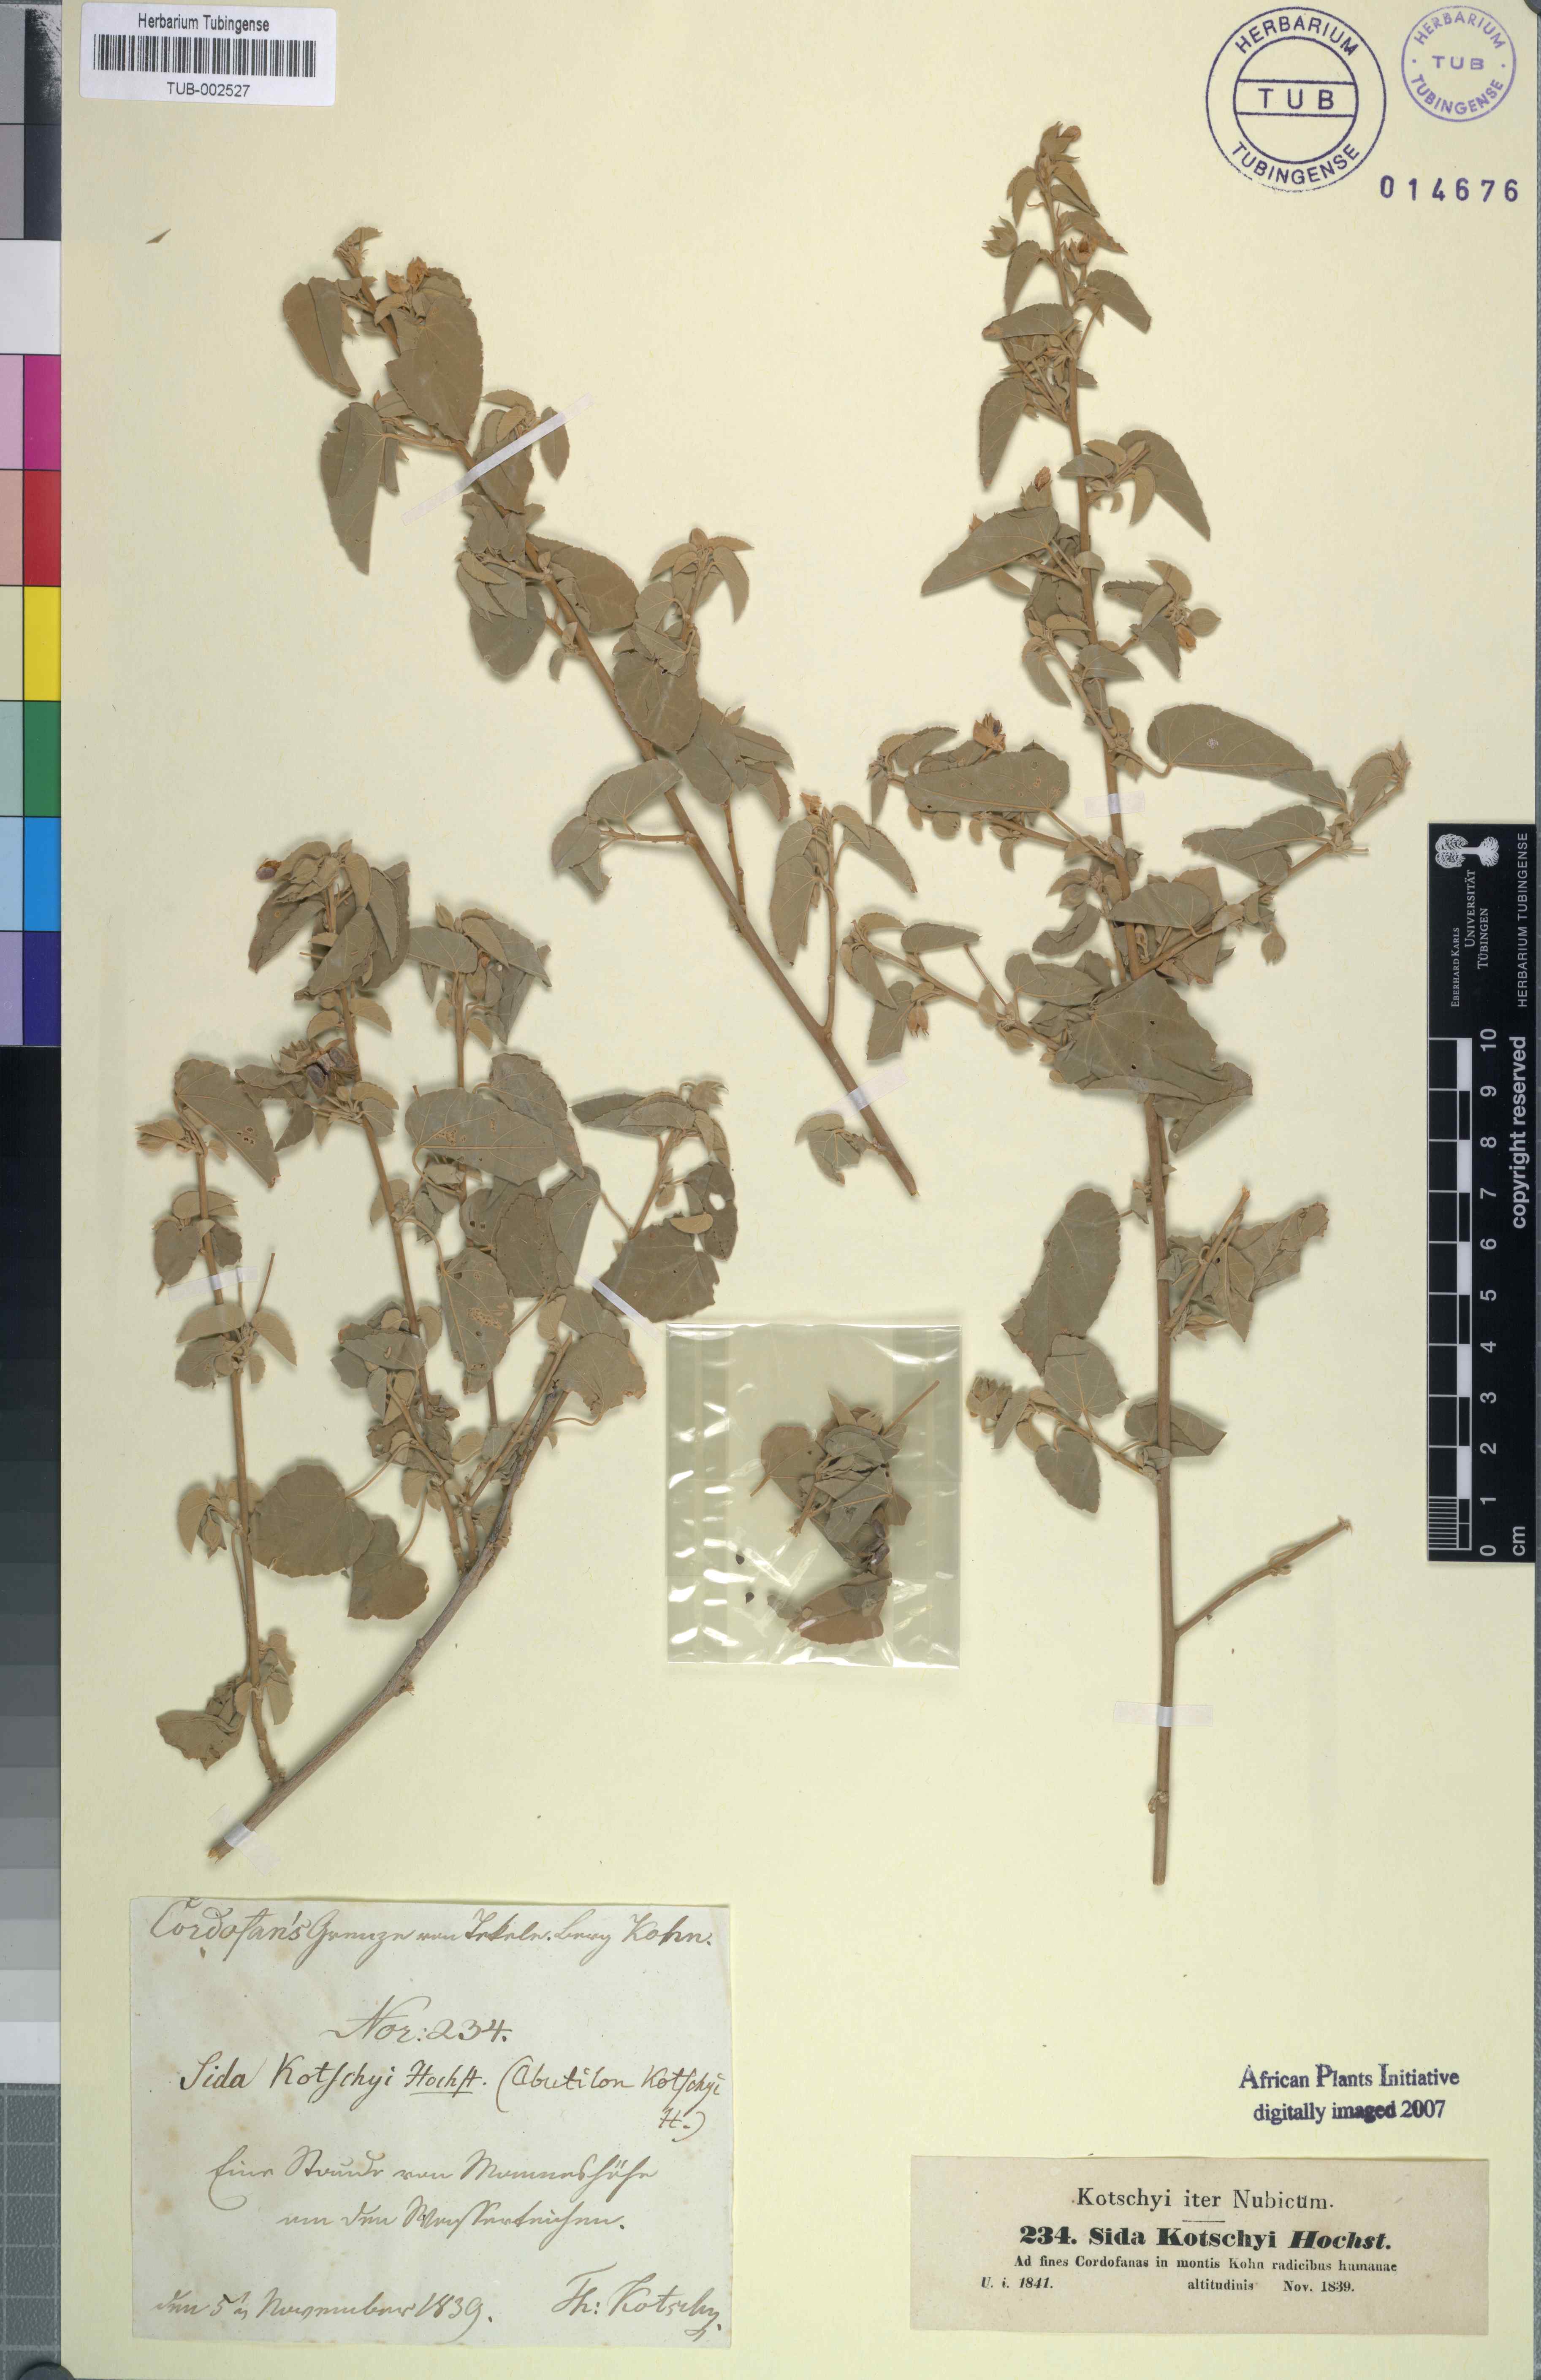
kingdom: Plantae
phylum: Tracheophyta
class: Magnoliopsida
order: Malvales
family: Malvaceae
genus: Abutilon
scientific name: Abutilon fruticosum
